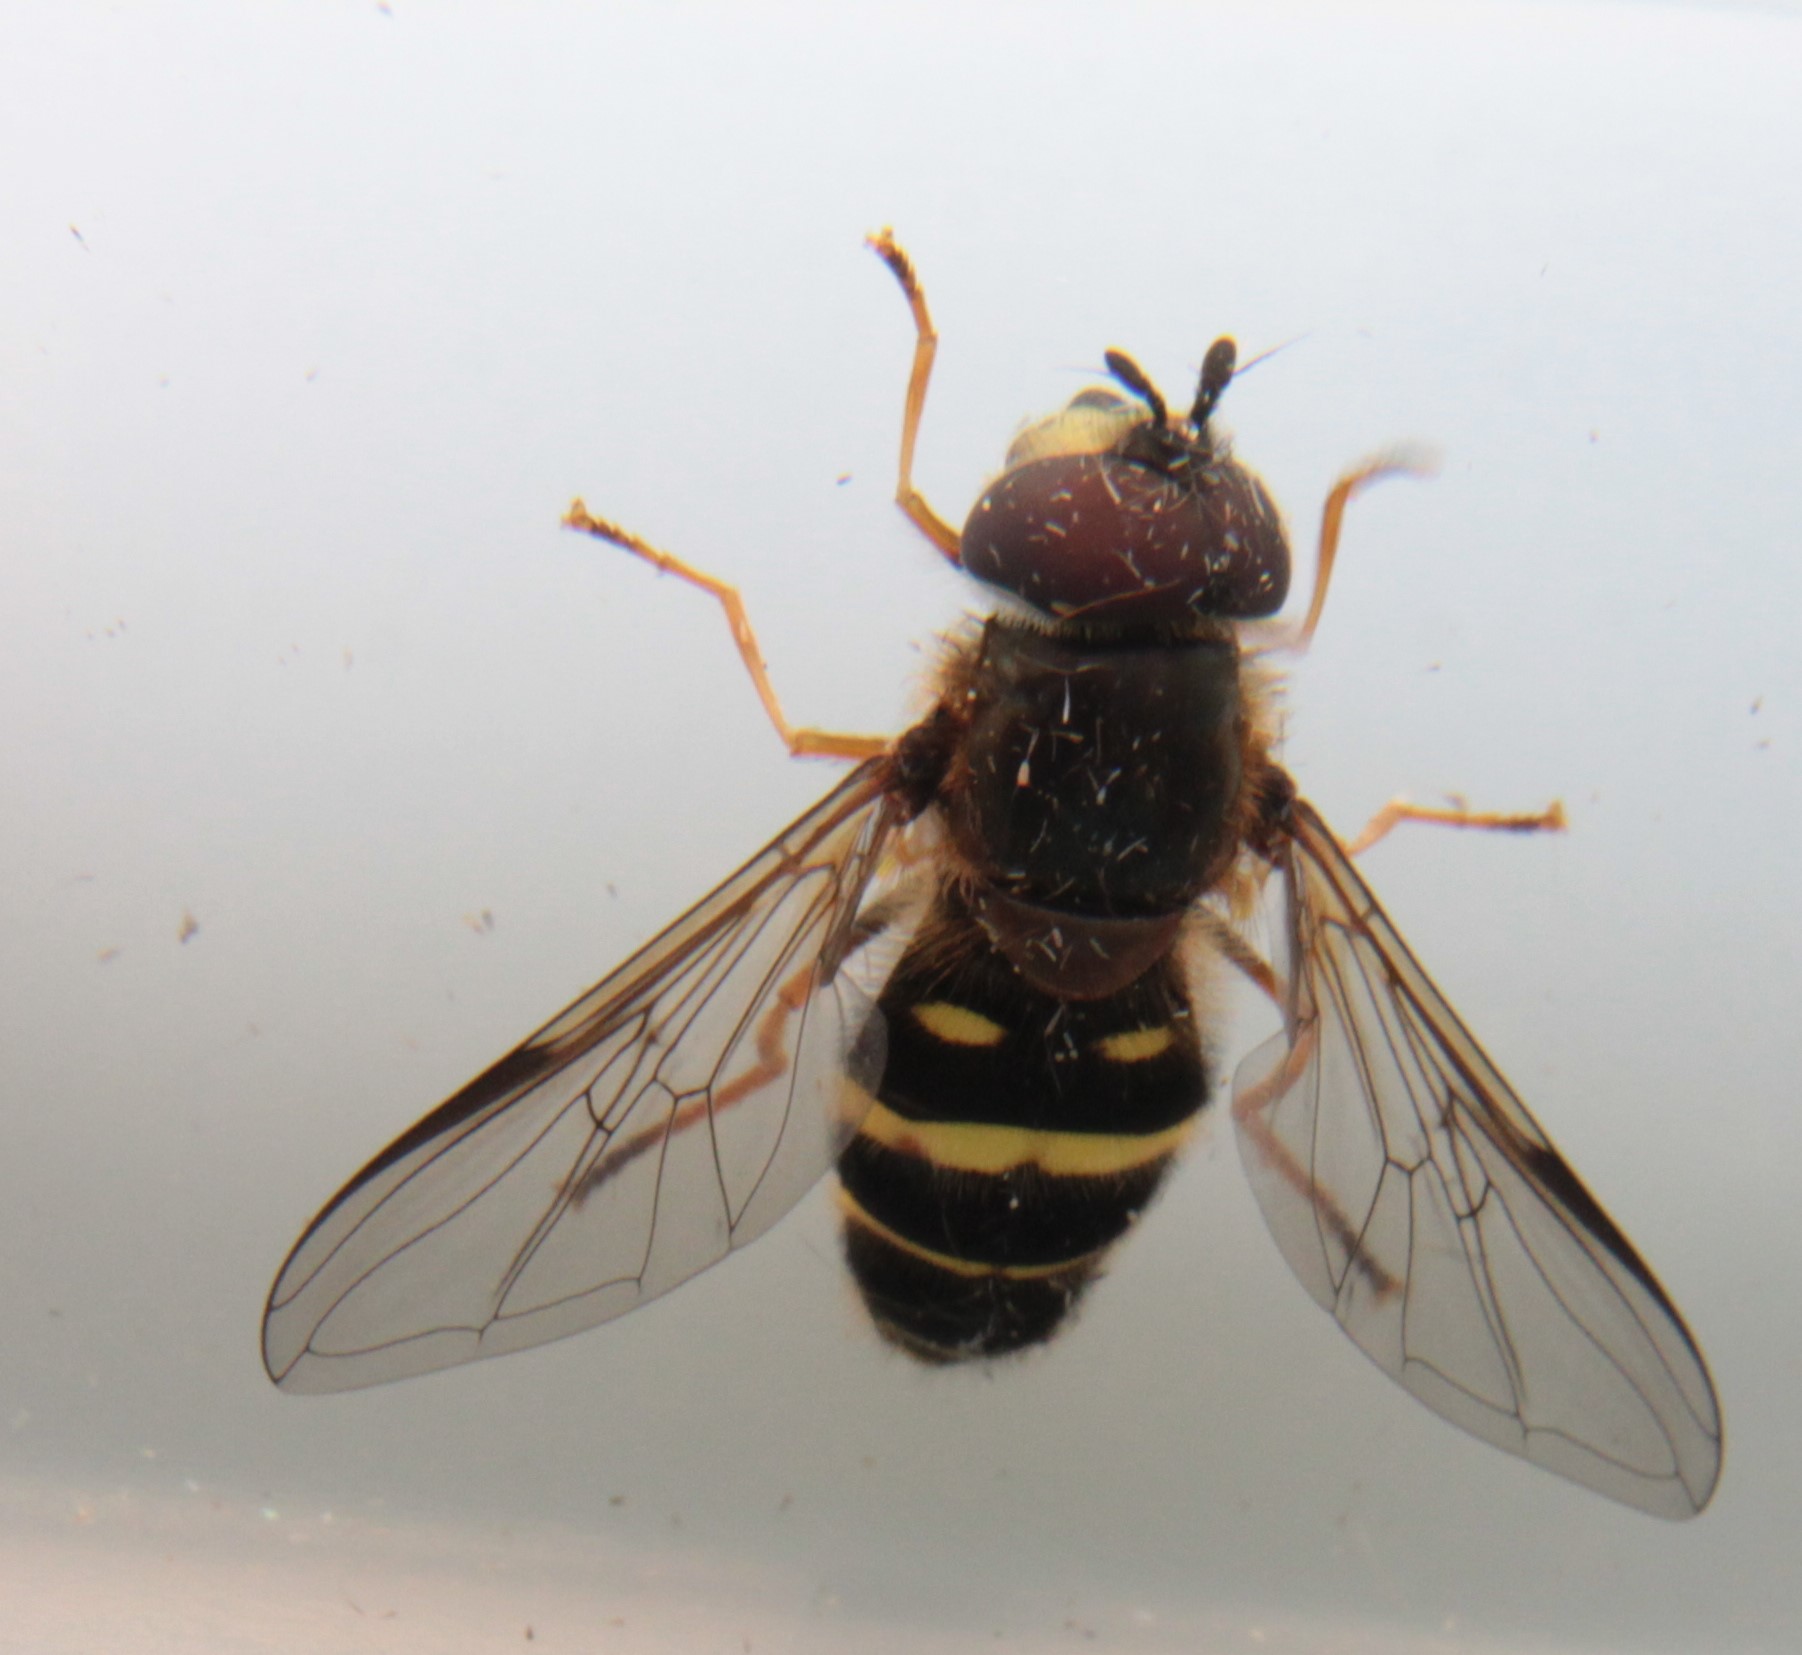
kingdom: Animalia
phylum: Arthropoda
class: Insecta
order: Diptera
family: Syrphidae
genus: Dasysyrphus
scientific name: Dasysyrphus tricinctus
